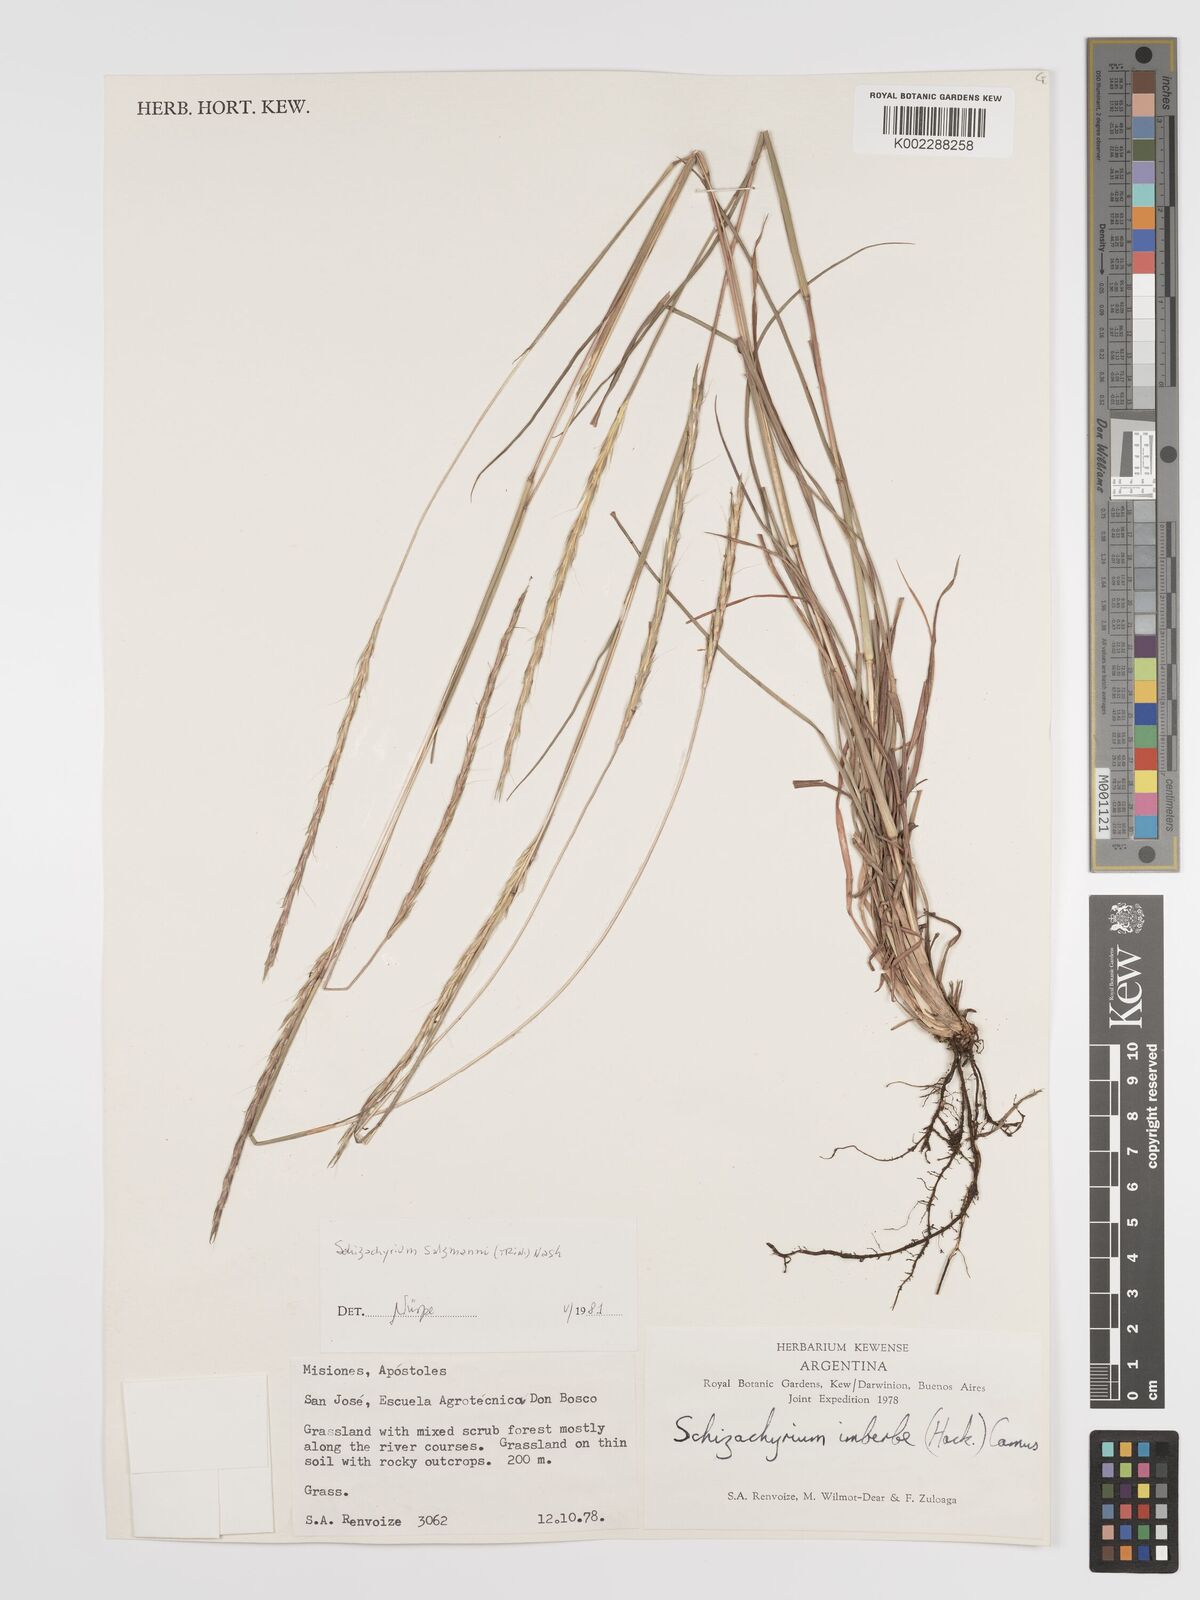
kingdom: Plantae
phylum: Tracheophyta
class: Liliopsida
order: Poales
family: Poaceae
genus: Andropogon
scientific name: Andropogon salzmannii
